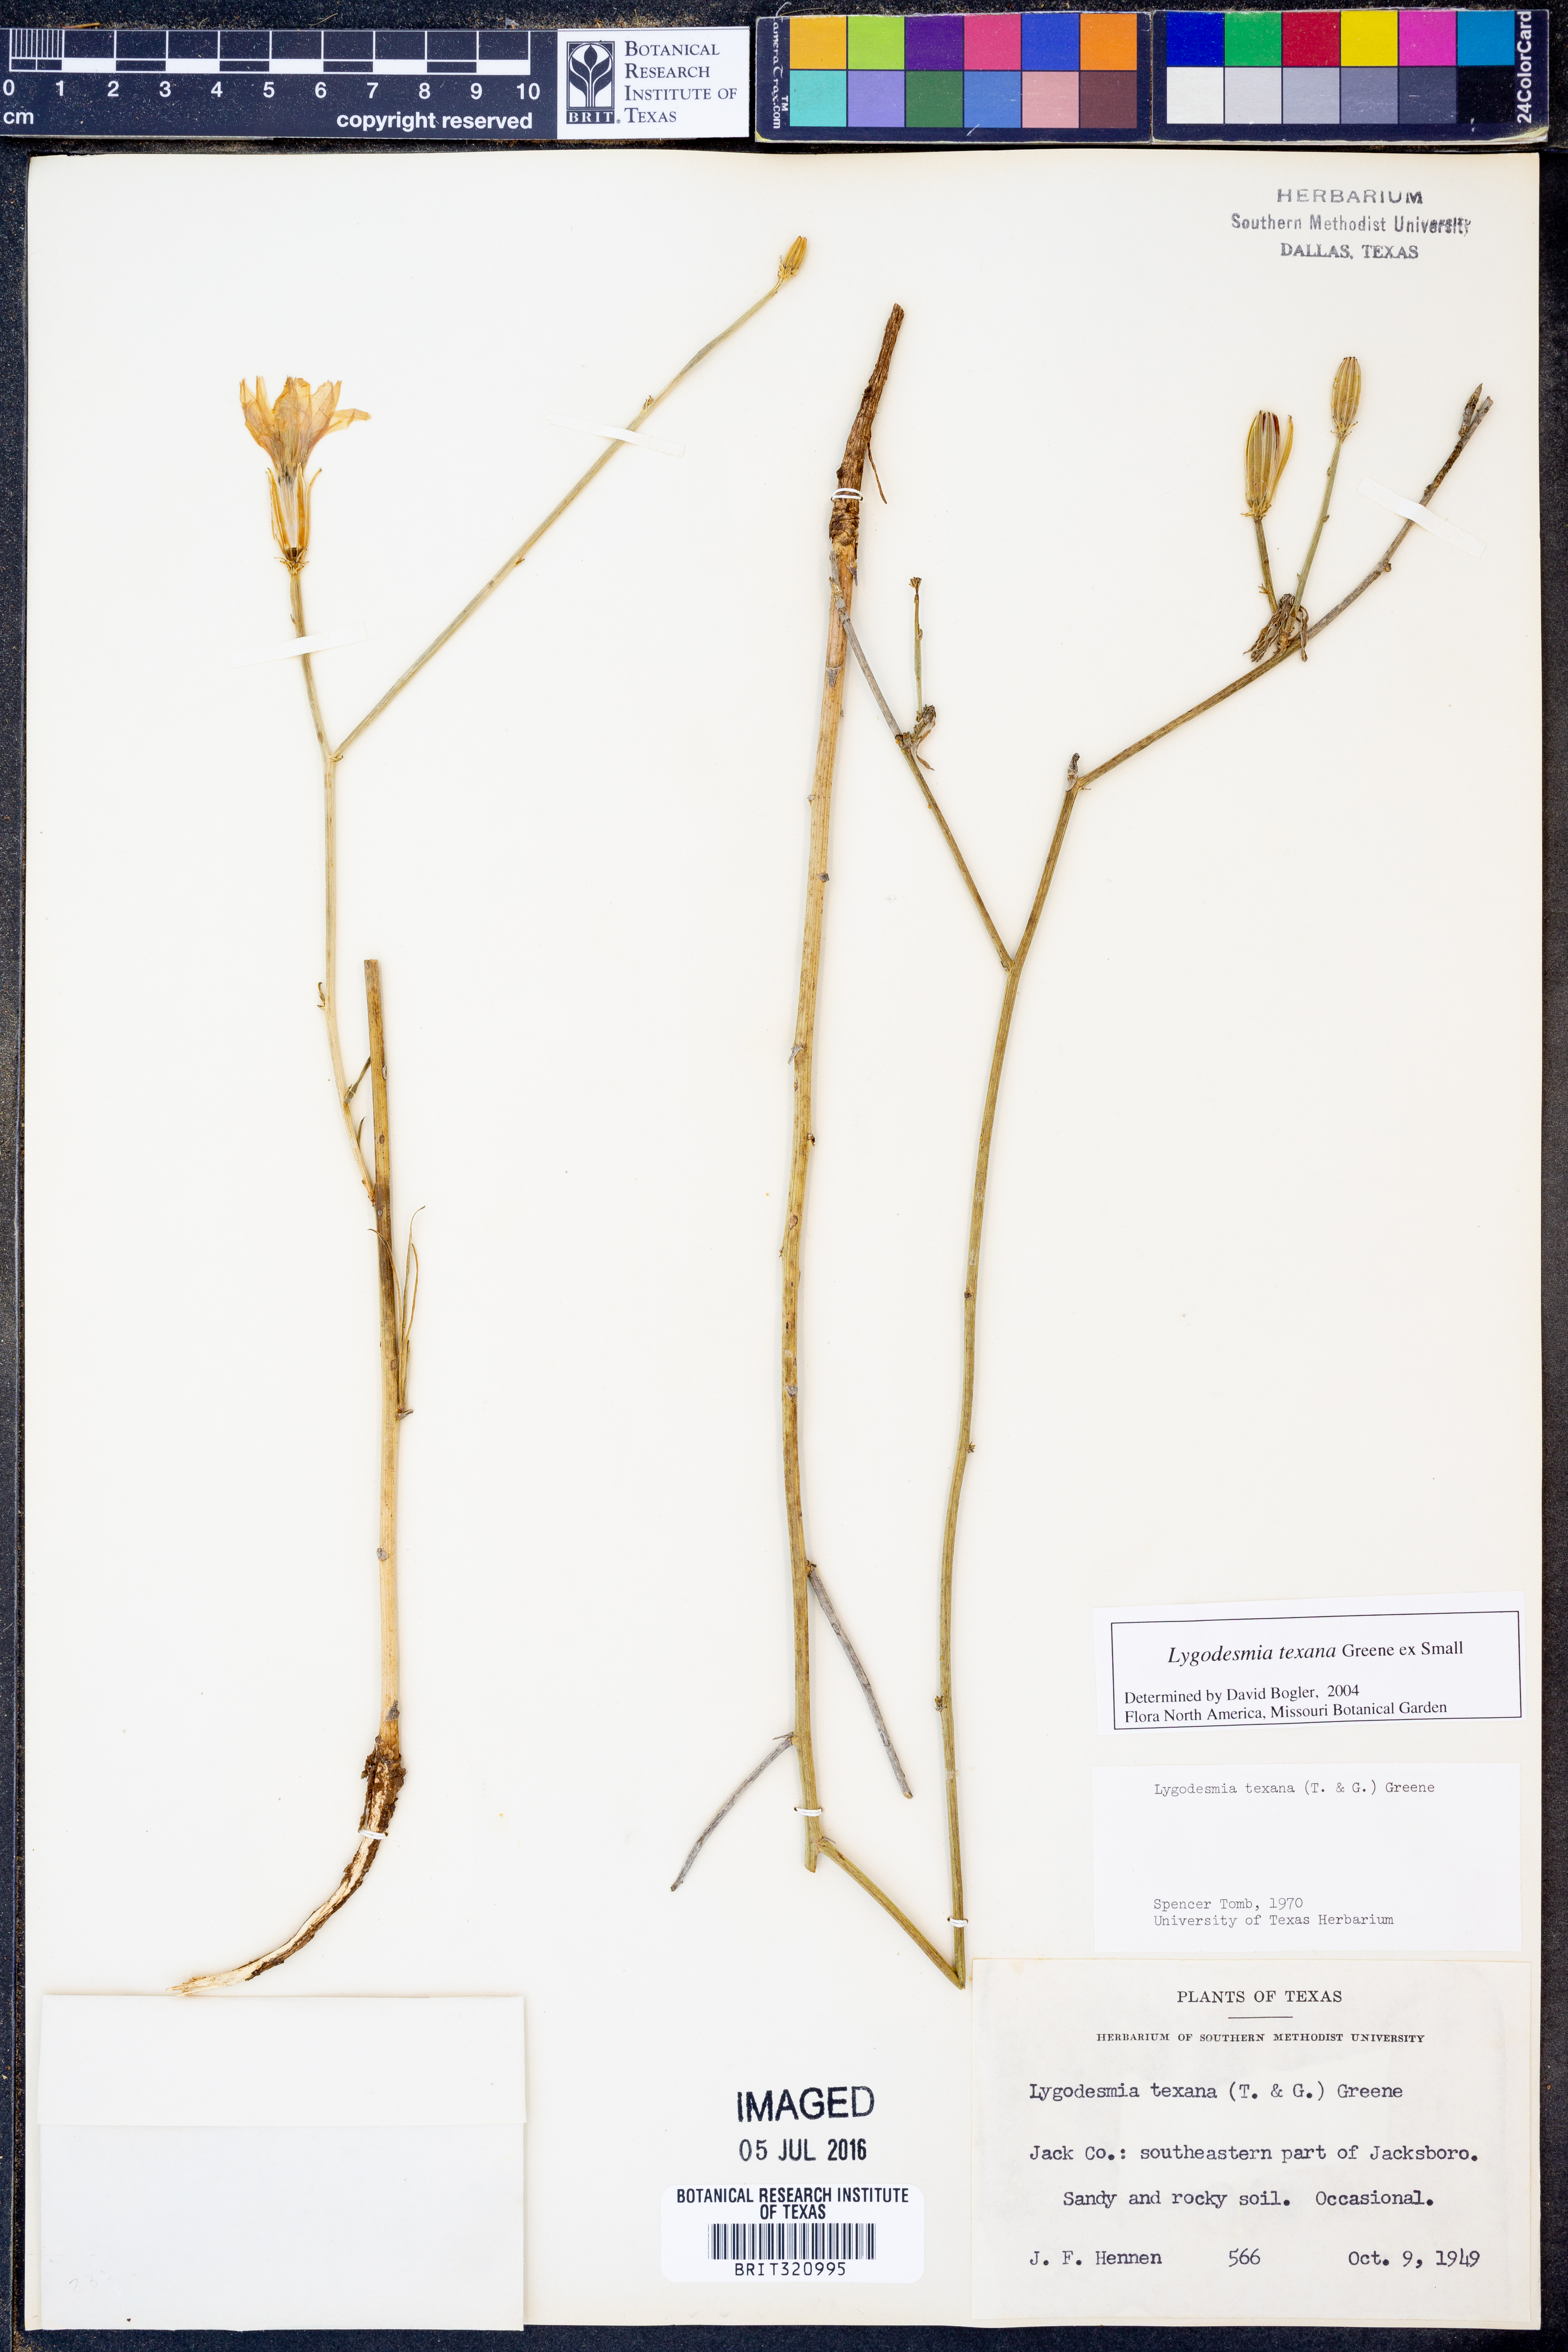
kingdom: Plantae
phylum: Tracheophyta
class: Magnoliopsida
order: Asterales
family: Asteraceae
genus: Lygodesmia
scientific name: Lygodesmia texana
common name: Texas skeleton-plant
